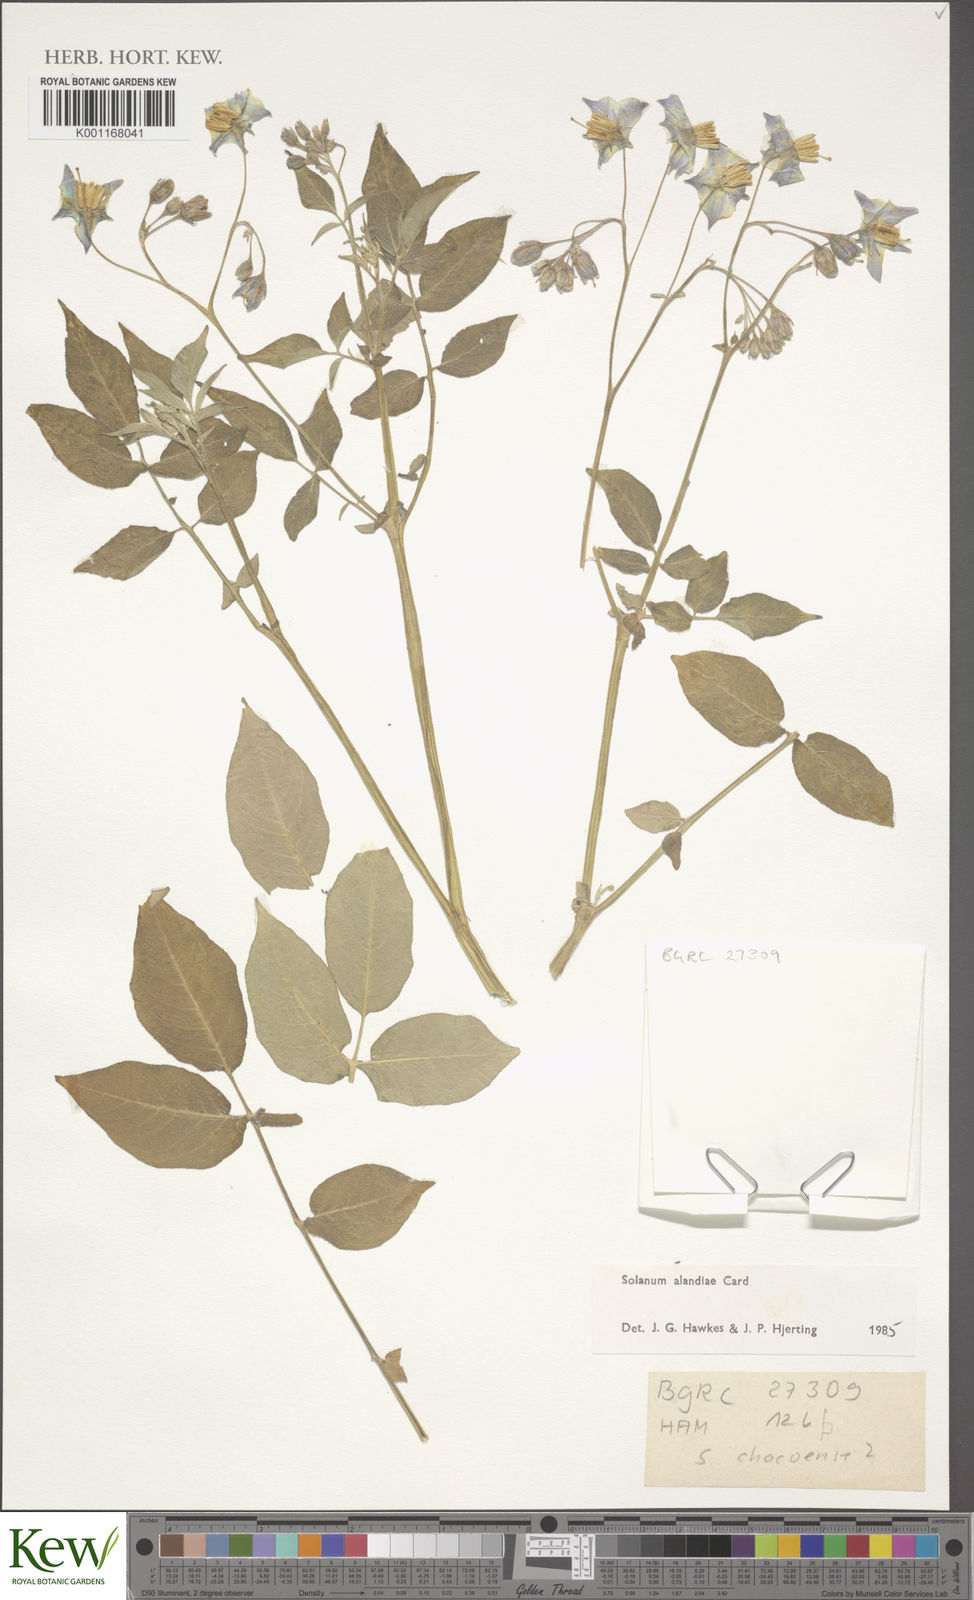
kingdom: Plantae
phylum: Tracheophyta
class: Magnoliopsida
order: Solanales
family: Solanaceae
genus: Solanum
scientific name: Solanum
